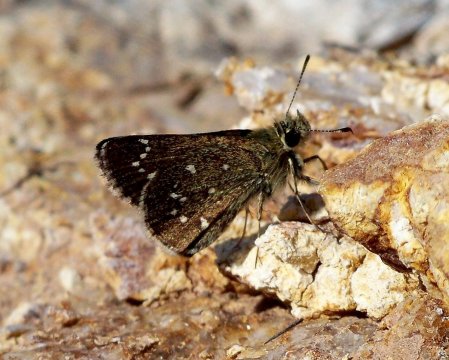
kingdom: Animalia
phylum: Arthropoda
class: Insecta
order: Lepidoptera
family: Hesperiidae
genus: Mastor
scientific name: Mastor elissa
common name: Elissa Roadside-Skipper
